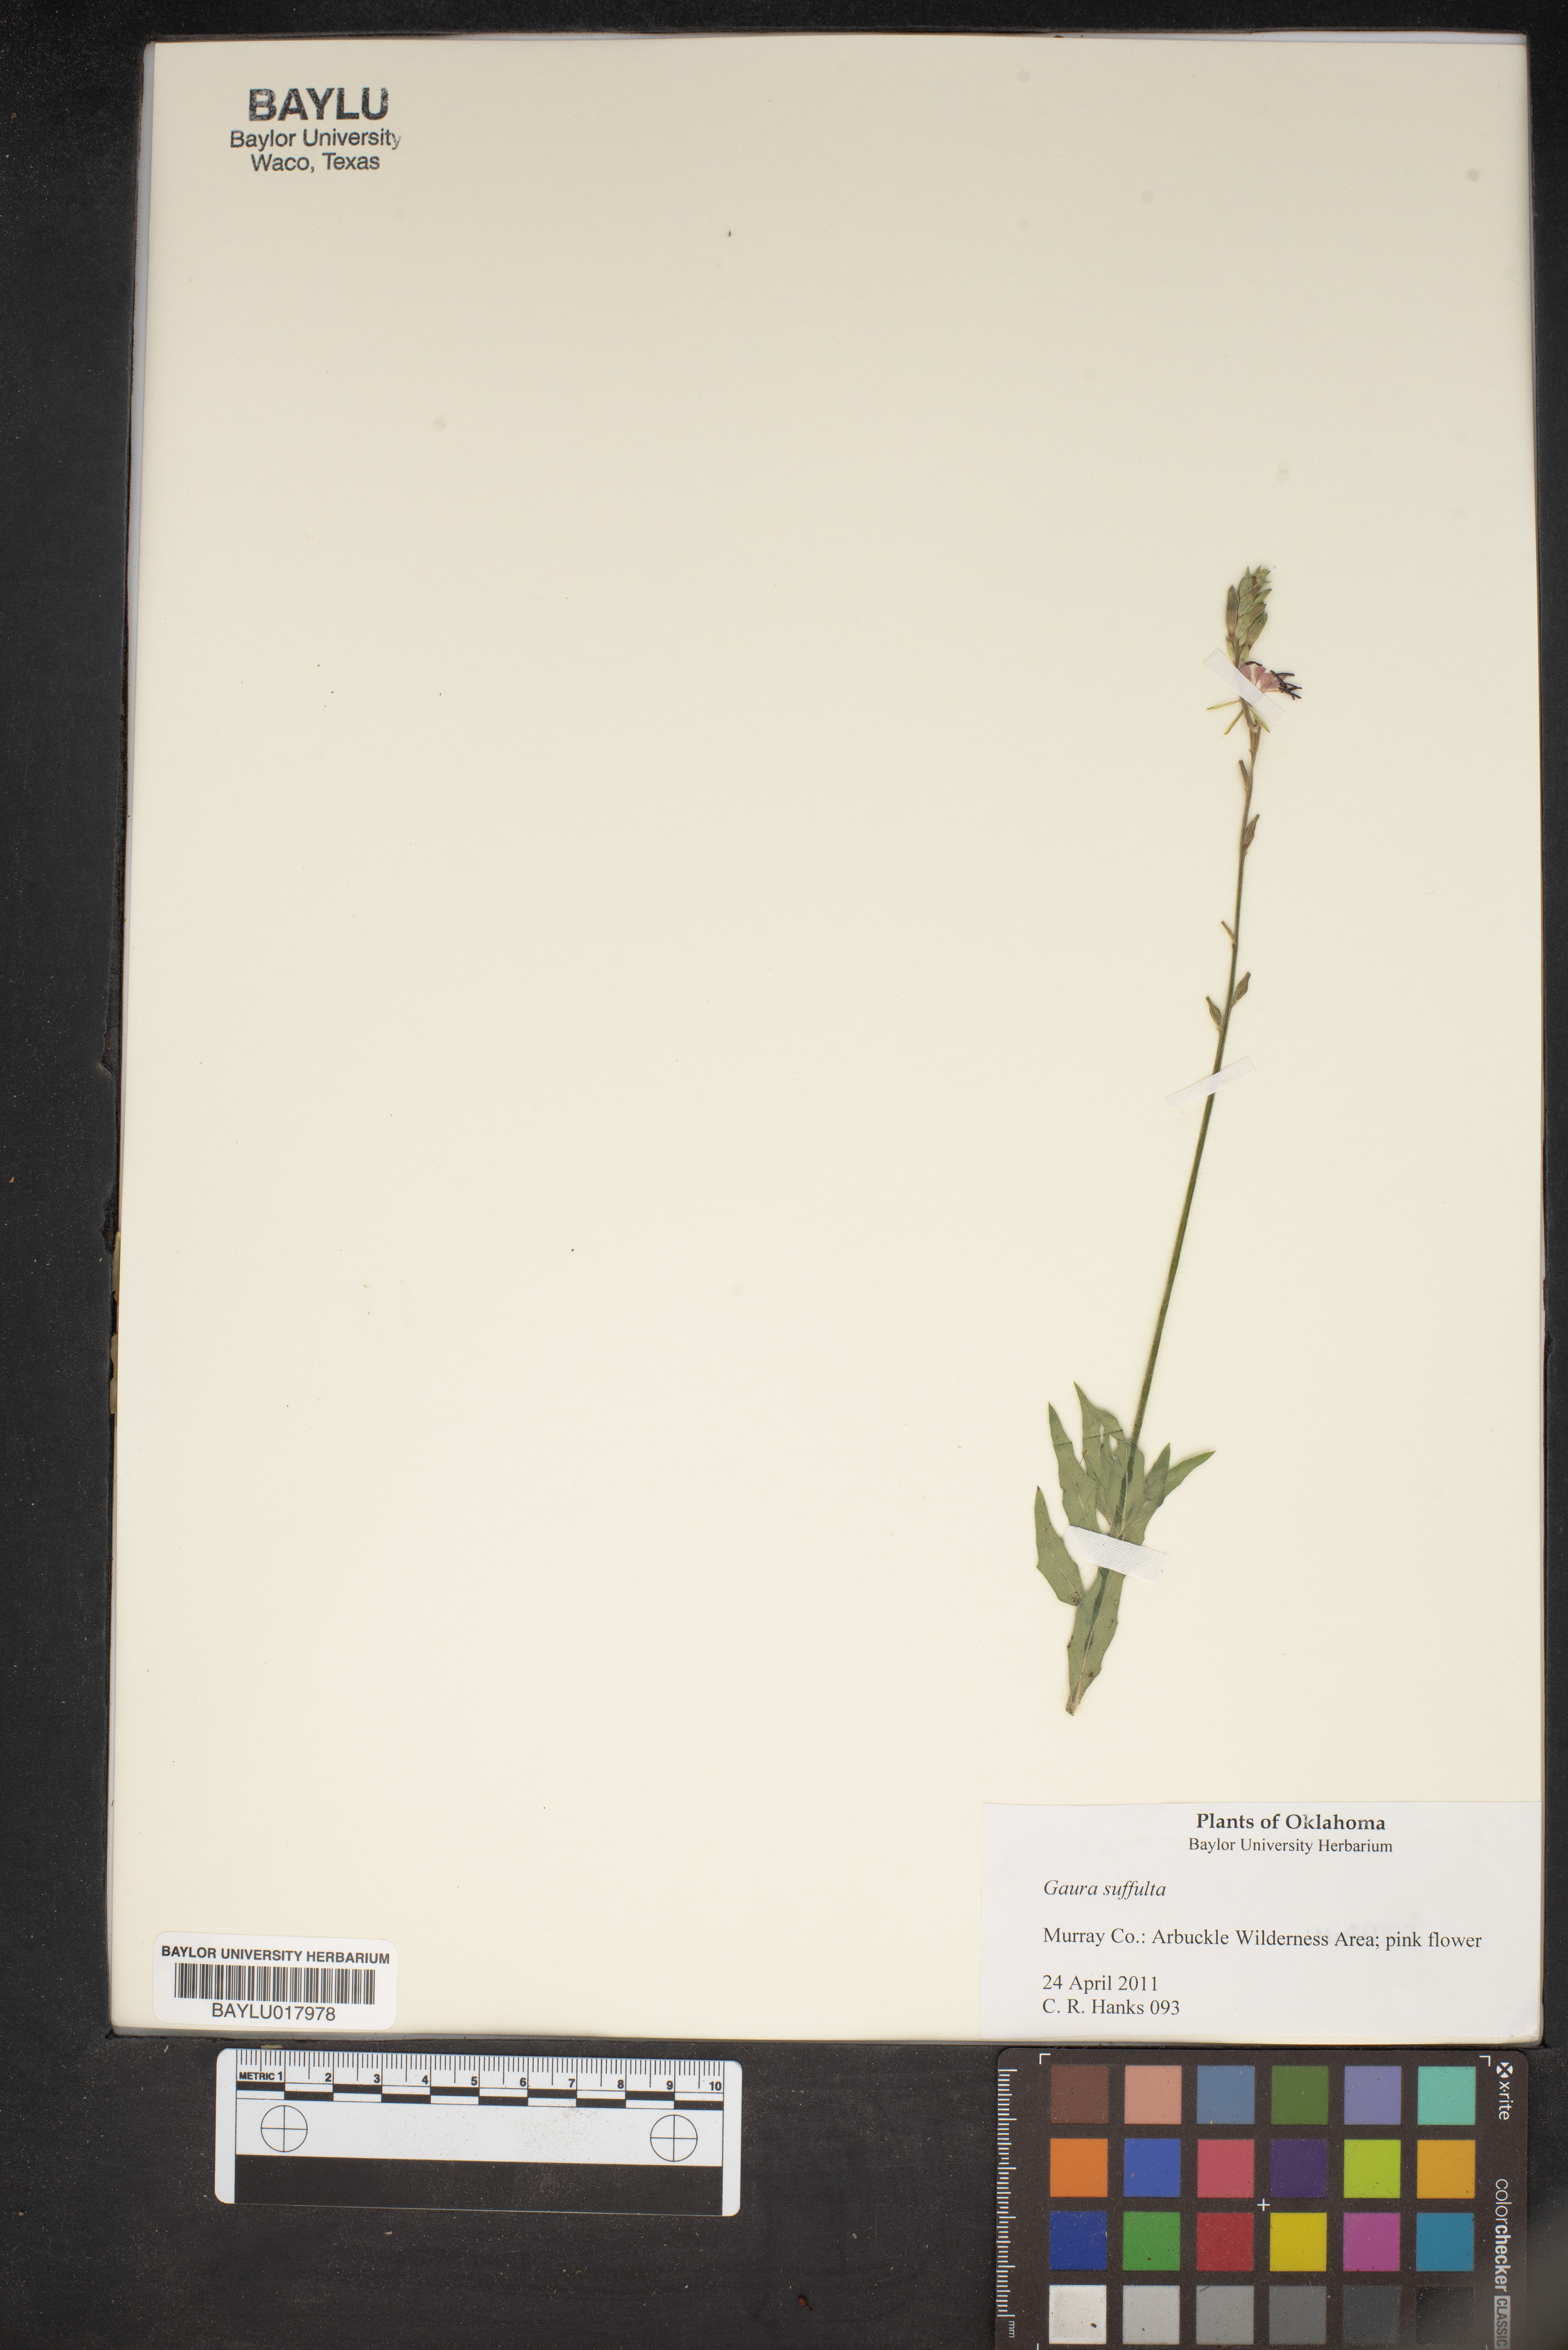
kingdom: Plantae
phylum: Tracheophyta
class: Magnoliopsida
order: Myrtales
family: Onagraceae
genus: Oenothera
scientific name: Oenothera Gaura suffulta
